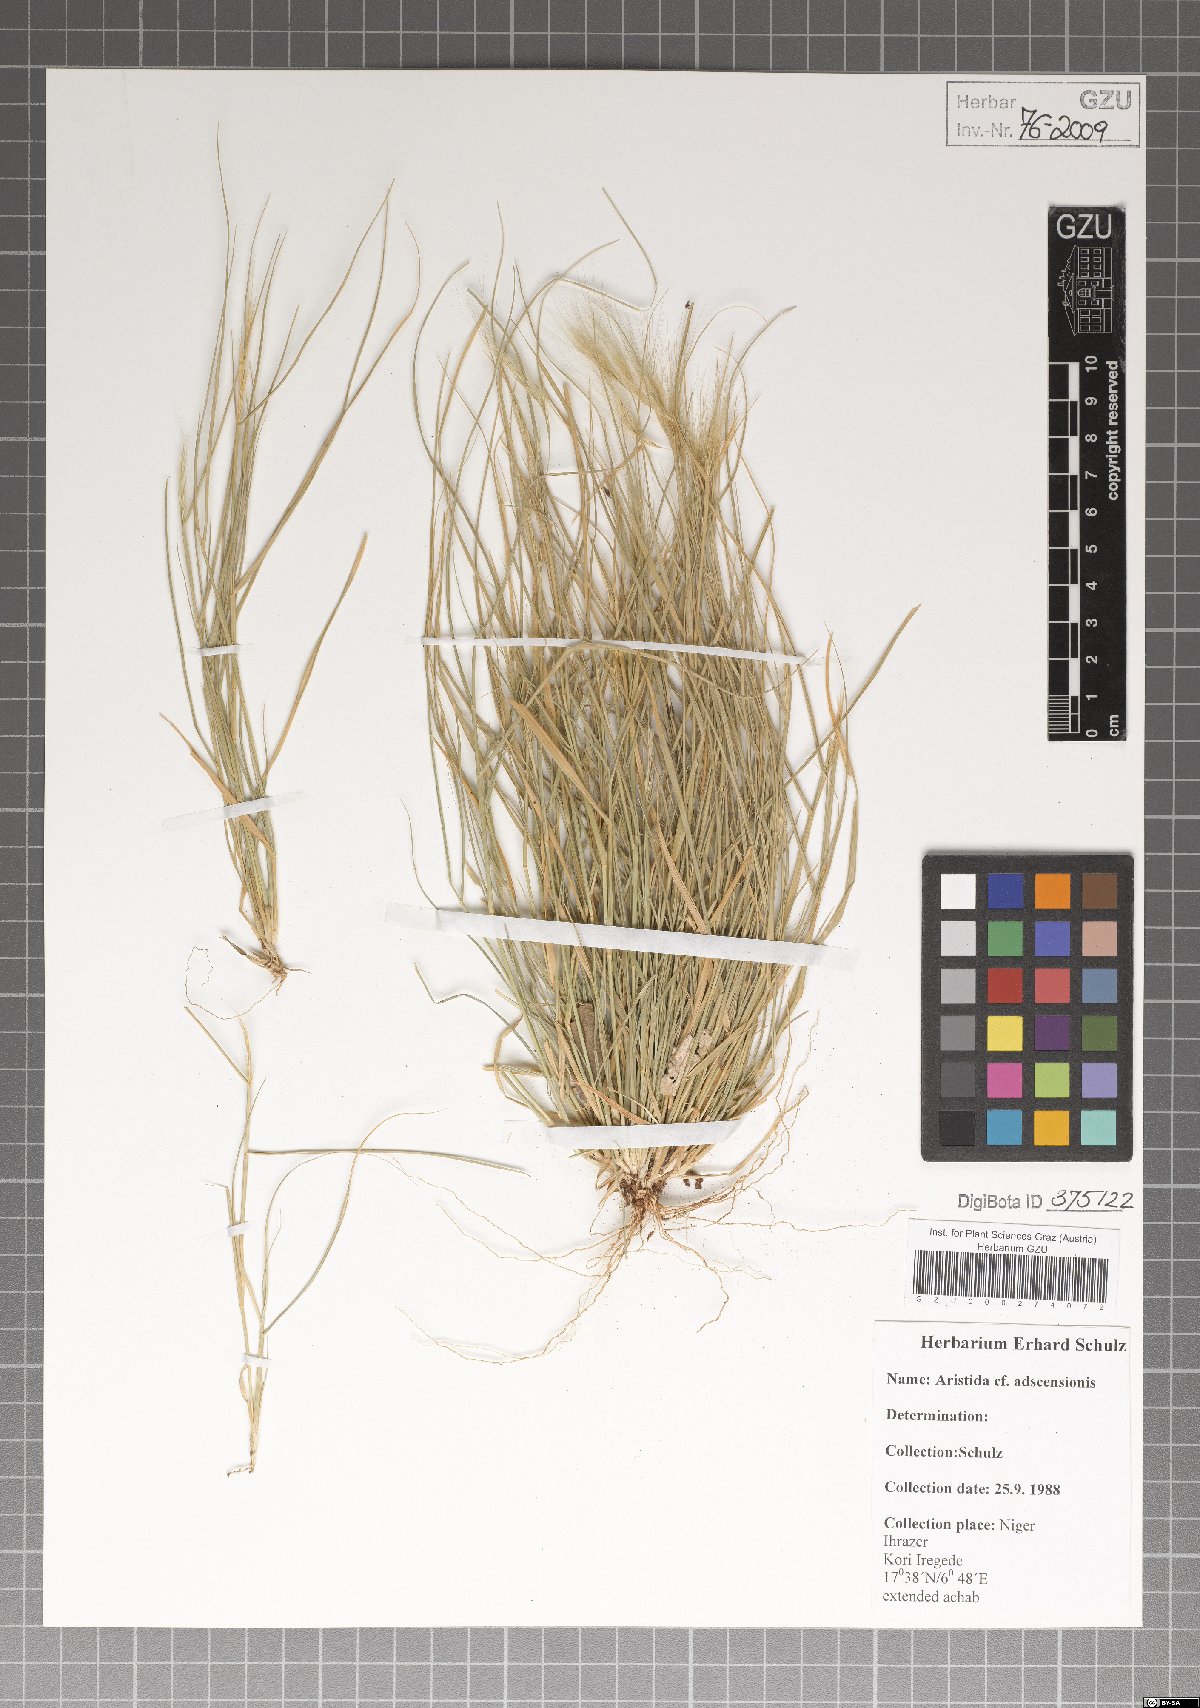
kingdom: Plantae
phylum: Tracheophyta
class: Liliopsida
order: Poales
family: Poaceae
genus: Aristida
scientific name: Aristida adscensionis
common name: Sixweeks threeawn
